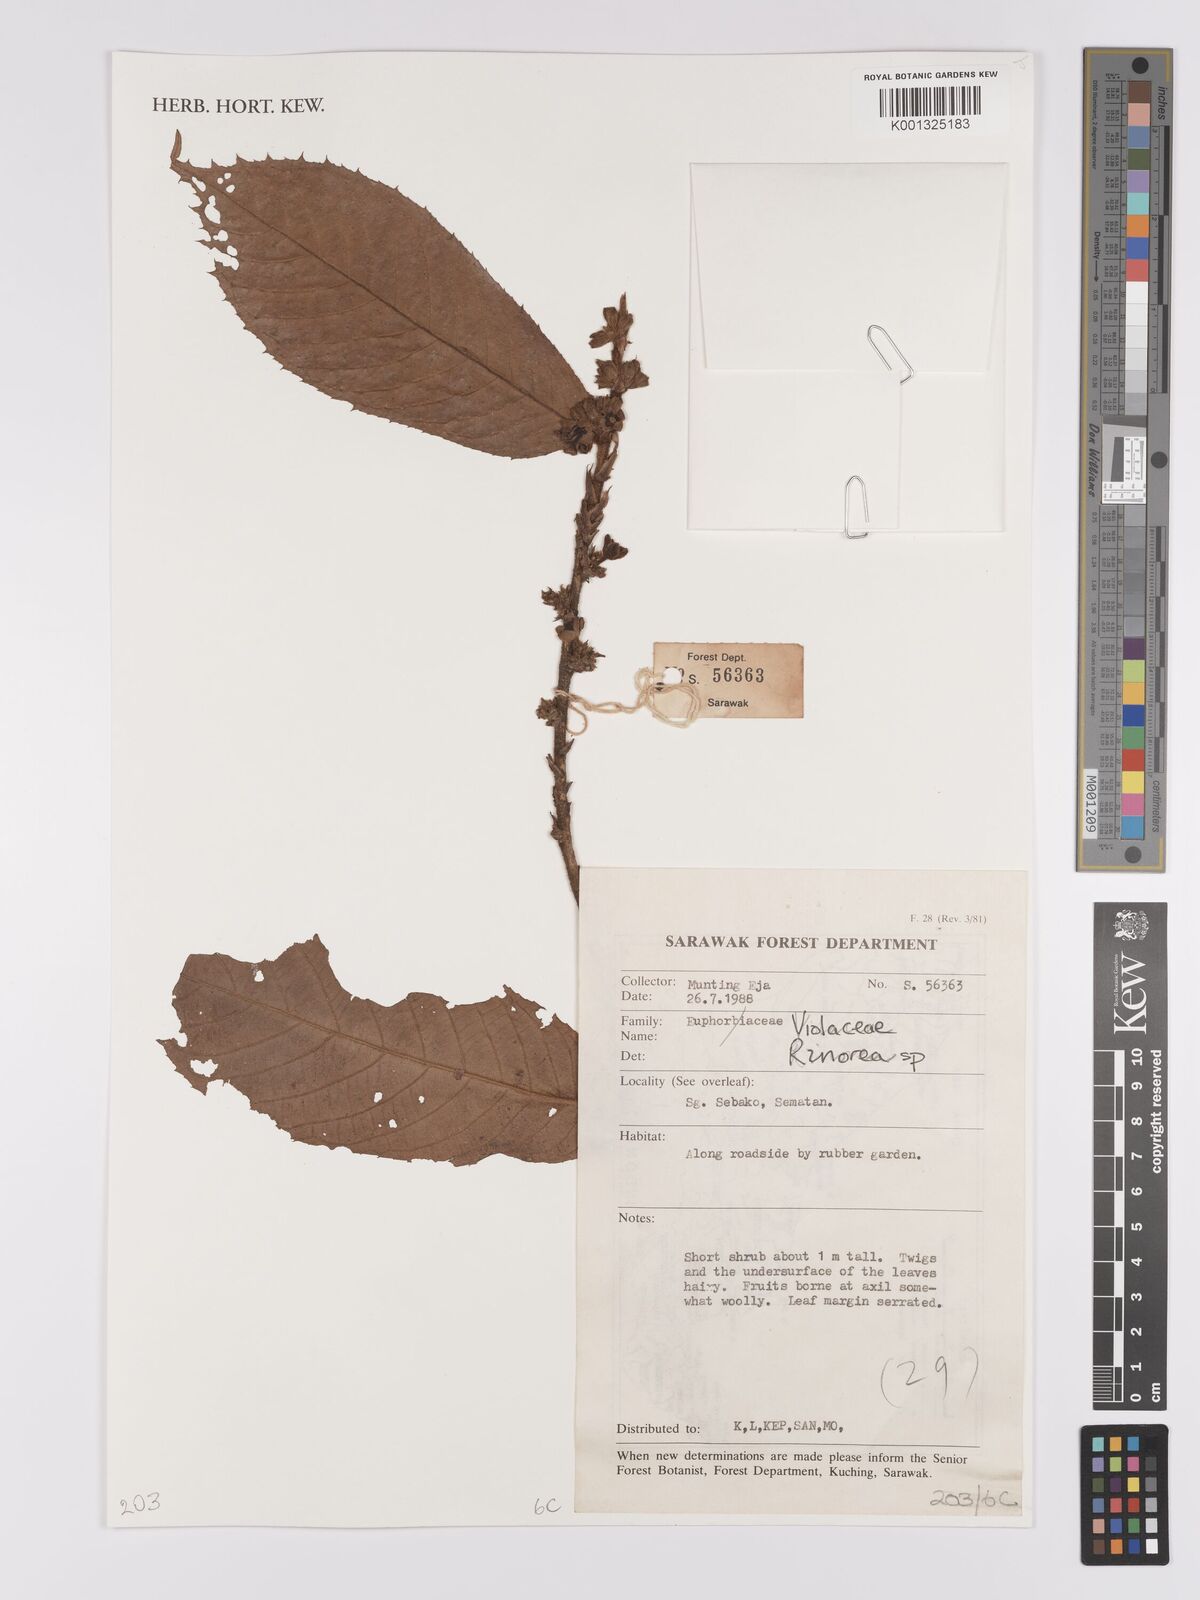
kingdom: Plantae
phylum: Tracheophyta
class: Magnoliopsida
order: Malpighiales
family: Violaceae
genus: Rinorea
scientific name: Rinorea
